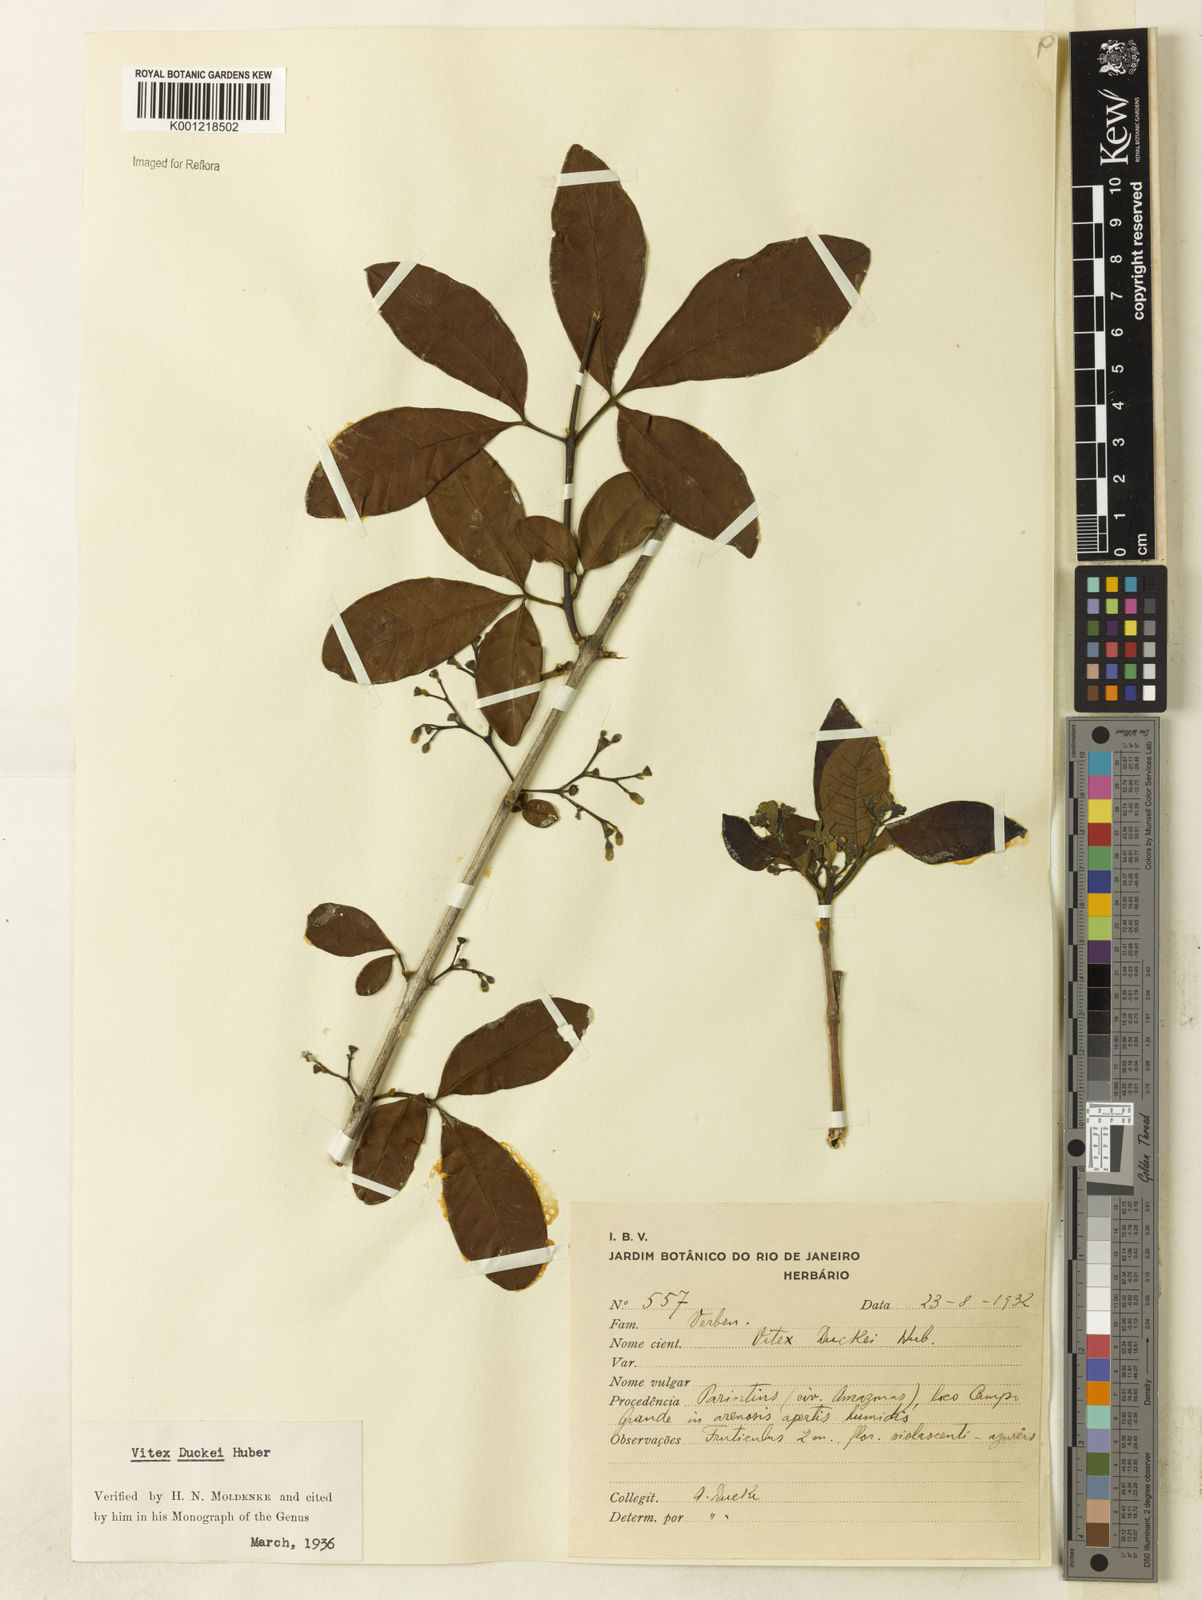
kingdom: Plantae
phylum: Tracheophyta
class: Magnoliopsida
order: Lamiales
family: Lamiaceae
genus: Vitex
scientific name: Vitex duckei
